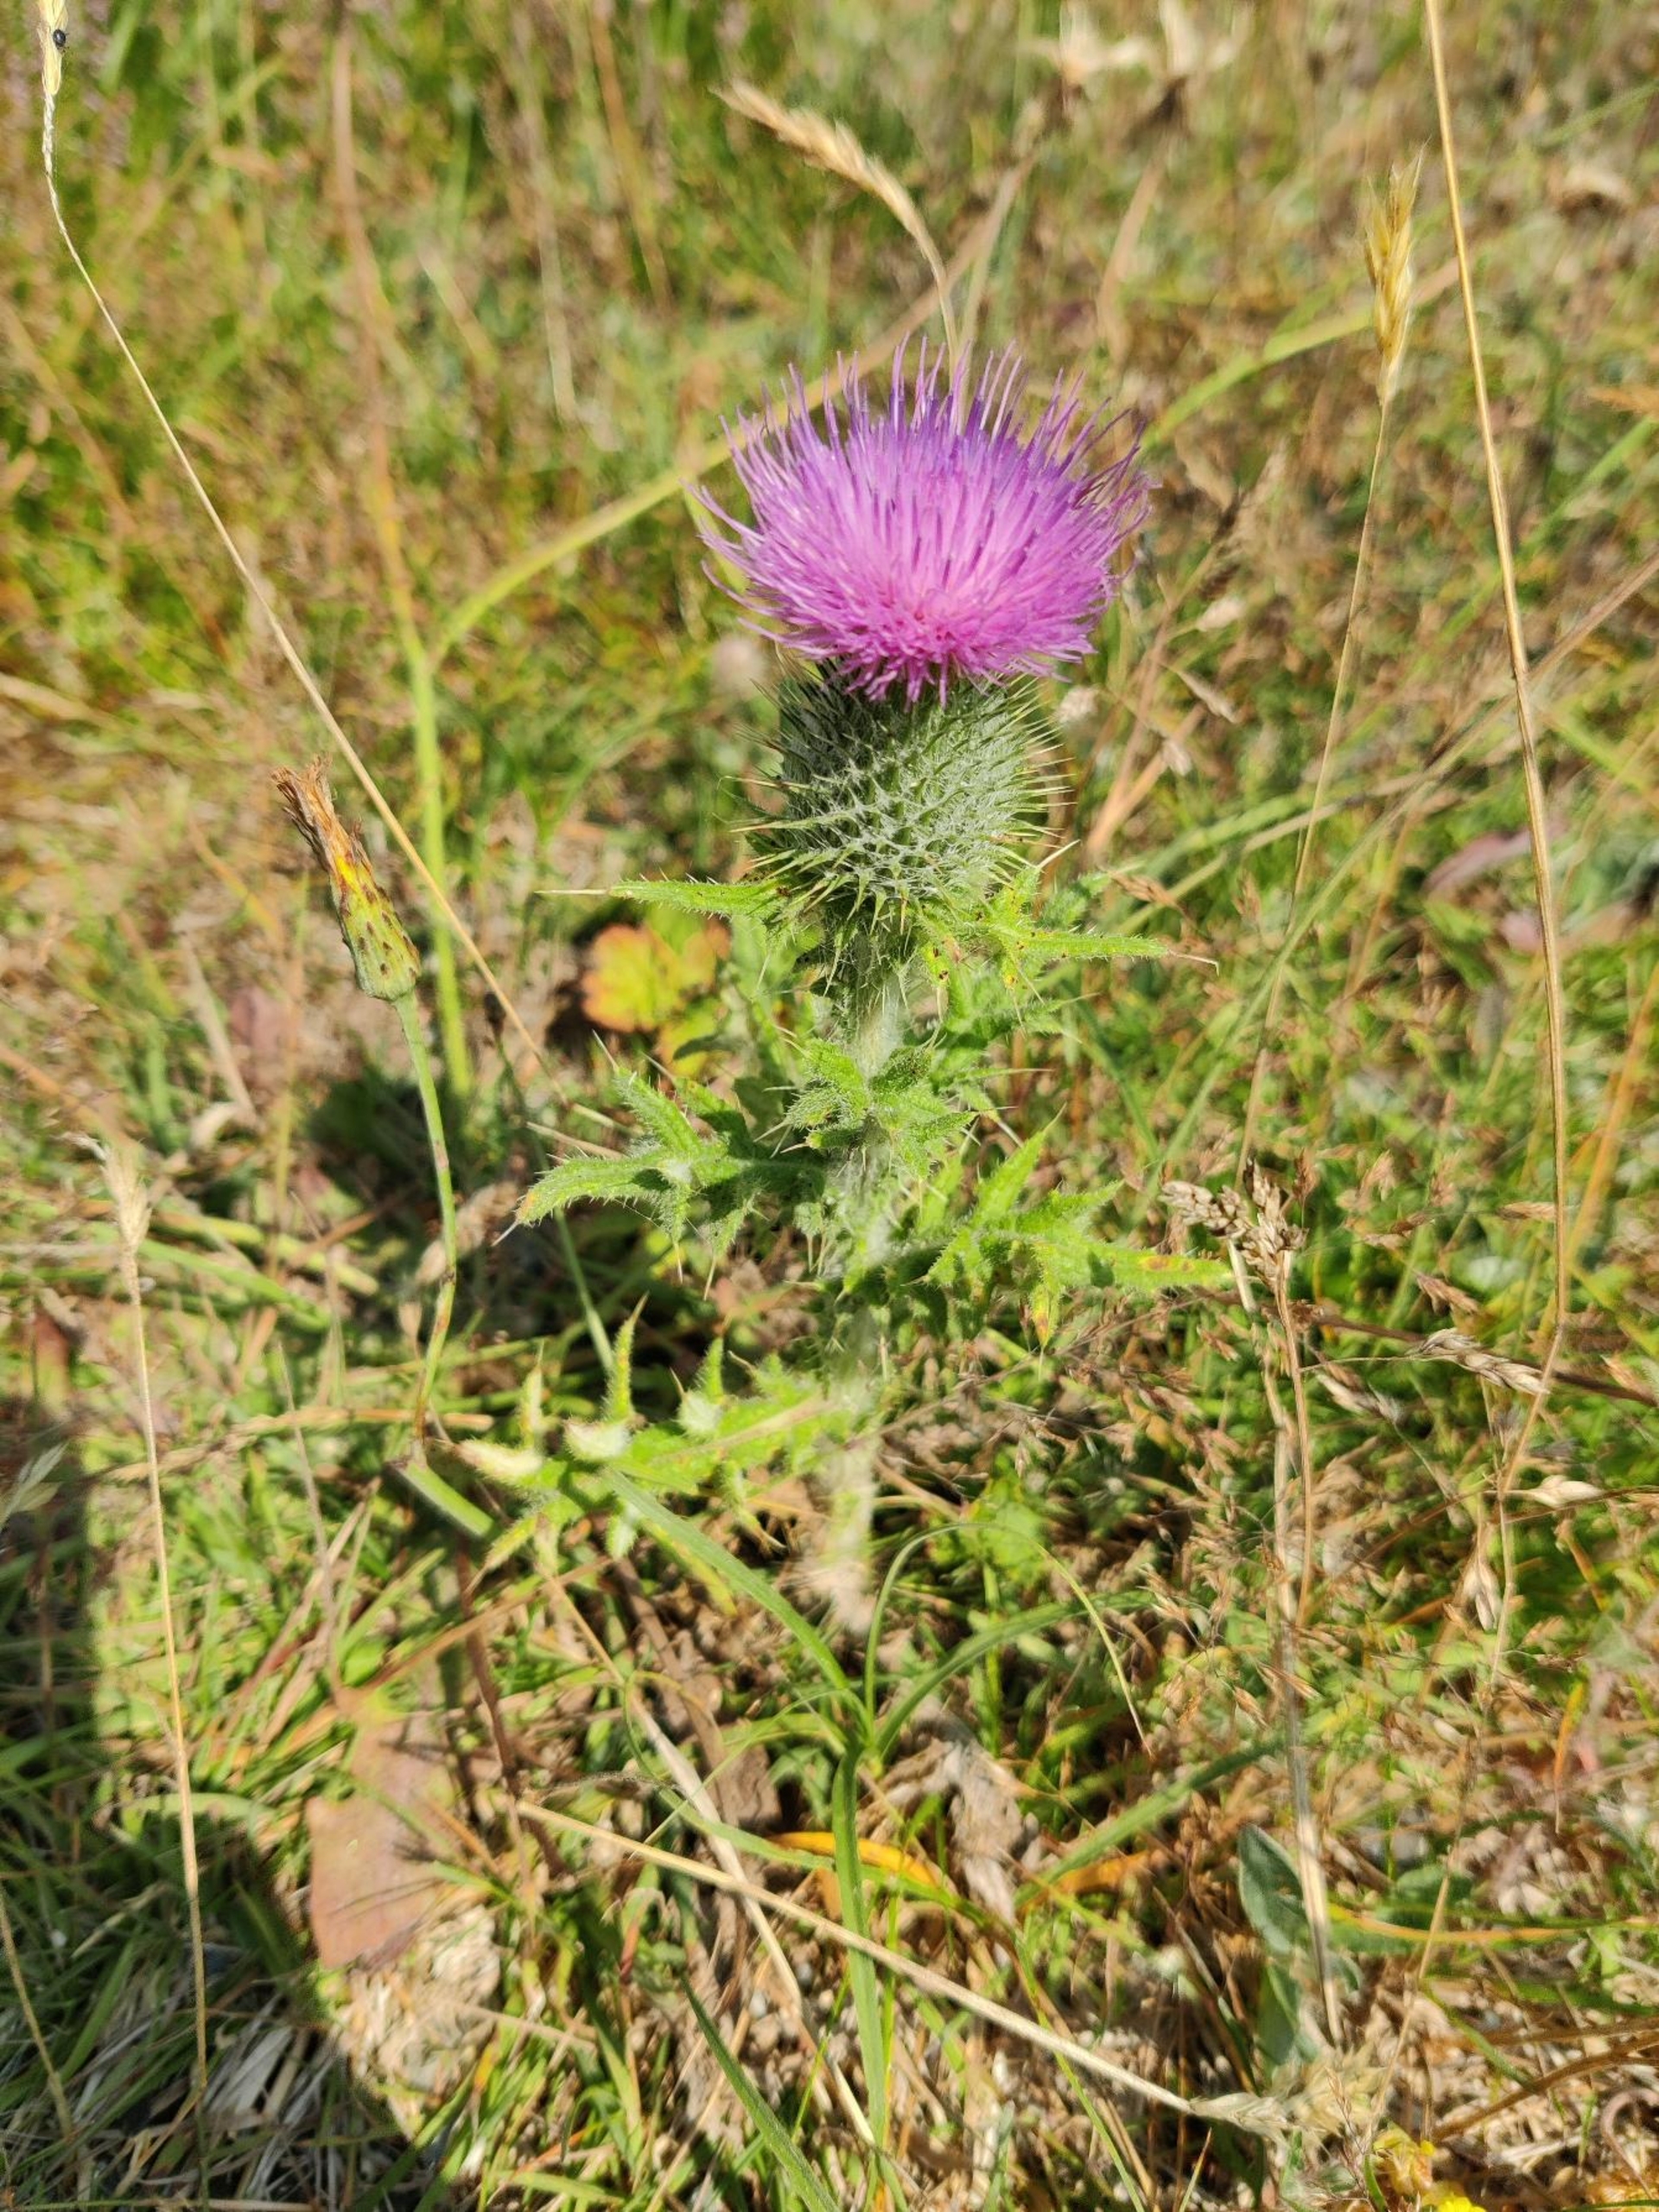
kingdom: Plantae
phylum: Tracheophyta
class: Magnoliopsida
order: Asterales
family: Asteraceae
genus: Cirsium
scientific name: Cirsium vulgare
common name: Horse-tidsel
